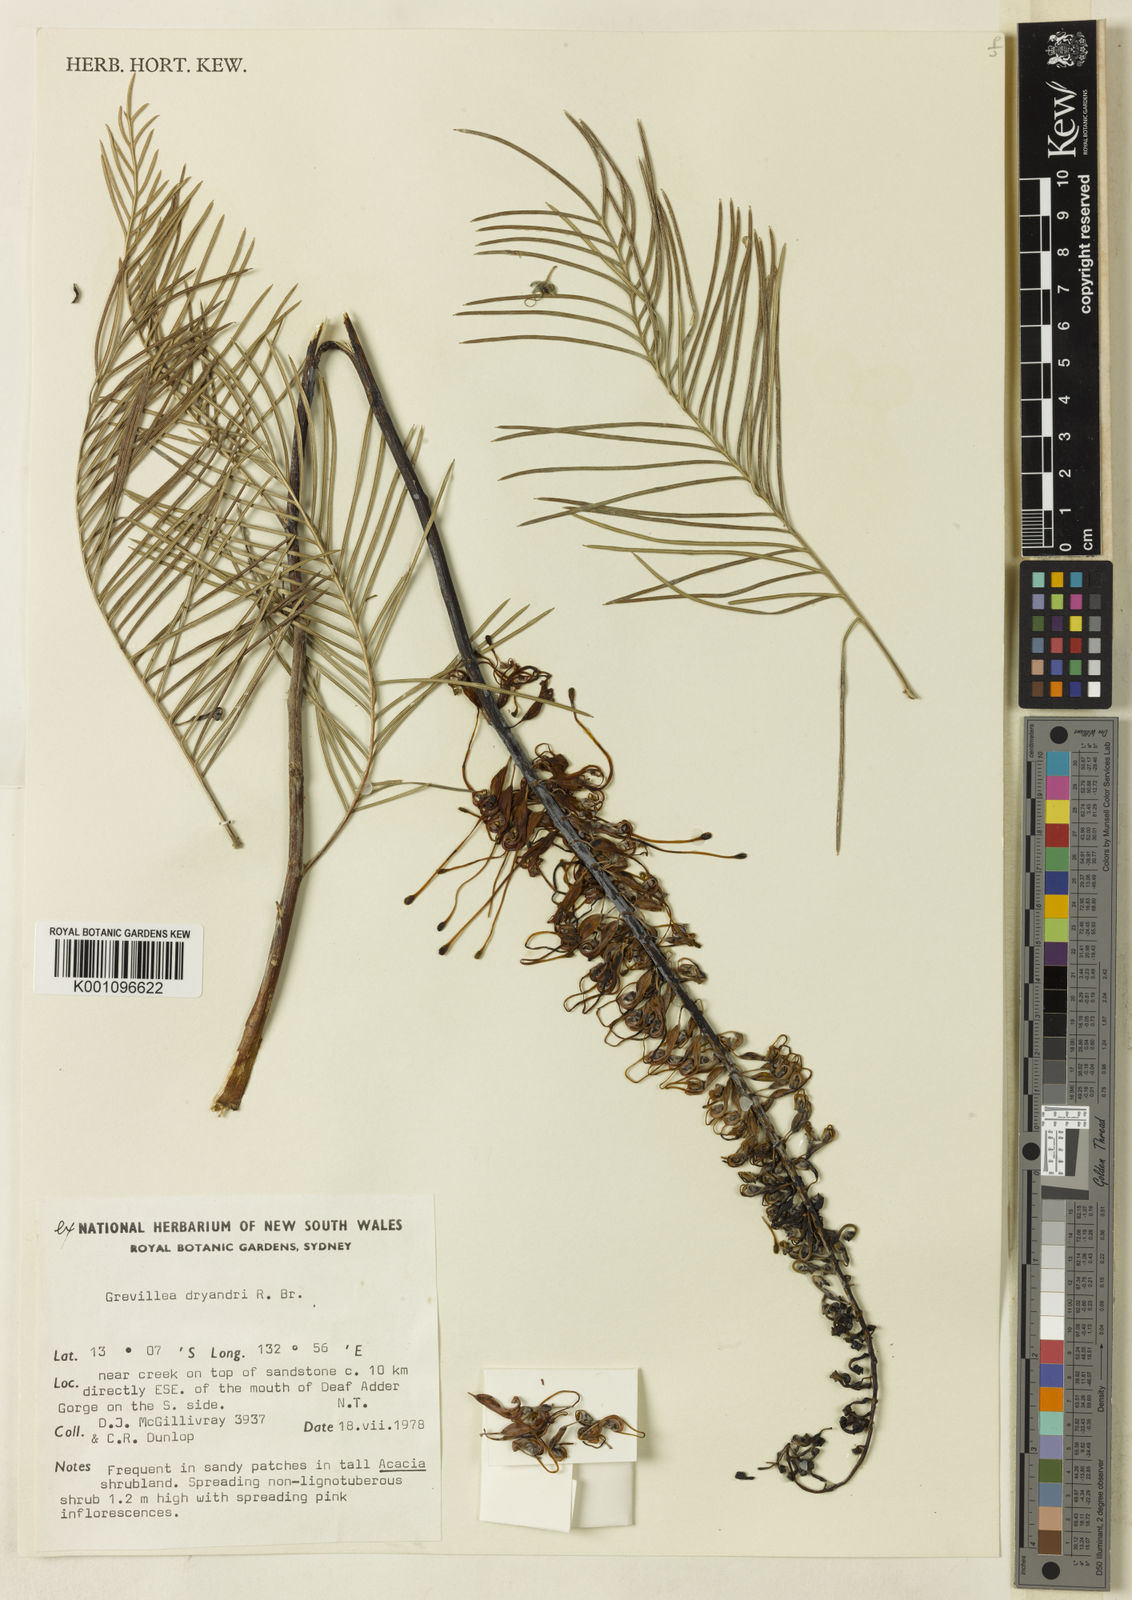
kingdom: Plantae
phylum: Tracheophyta
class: Magnoliopsida
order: Proteales
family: Proteaceae
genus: Grevillea
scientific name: Grevillea dryandri
